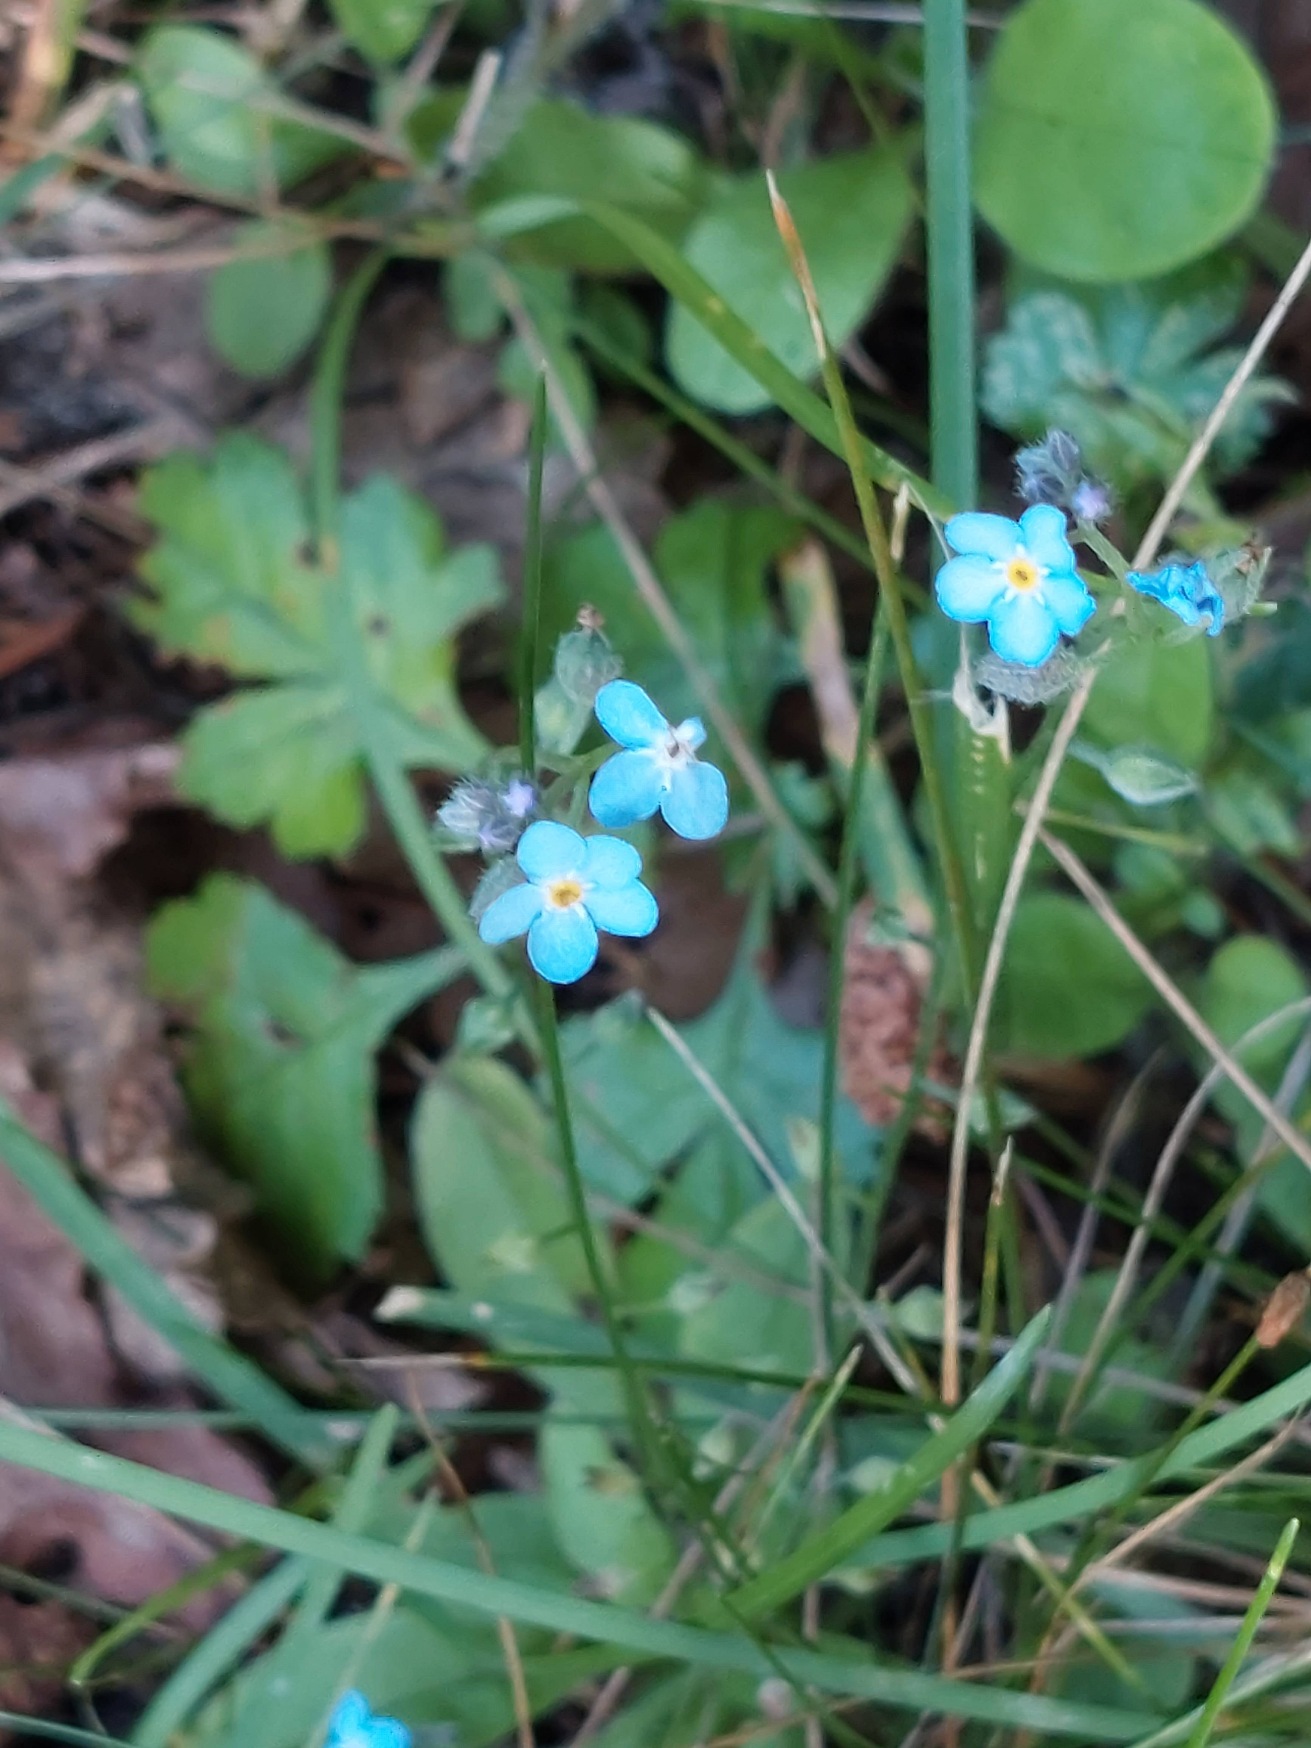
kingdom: Plantae
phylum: Tracheophyta
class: Magnoliopsida
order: Boraginales
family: Boraginaceae
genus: Myosotis
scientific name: Myosotis sylvatica
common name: Skov-forglemmigej
